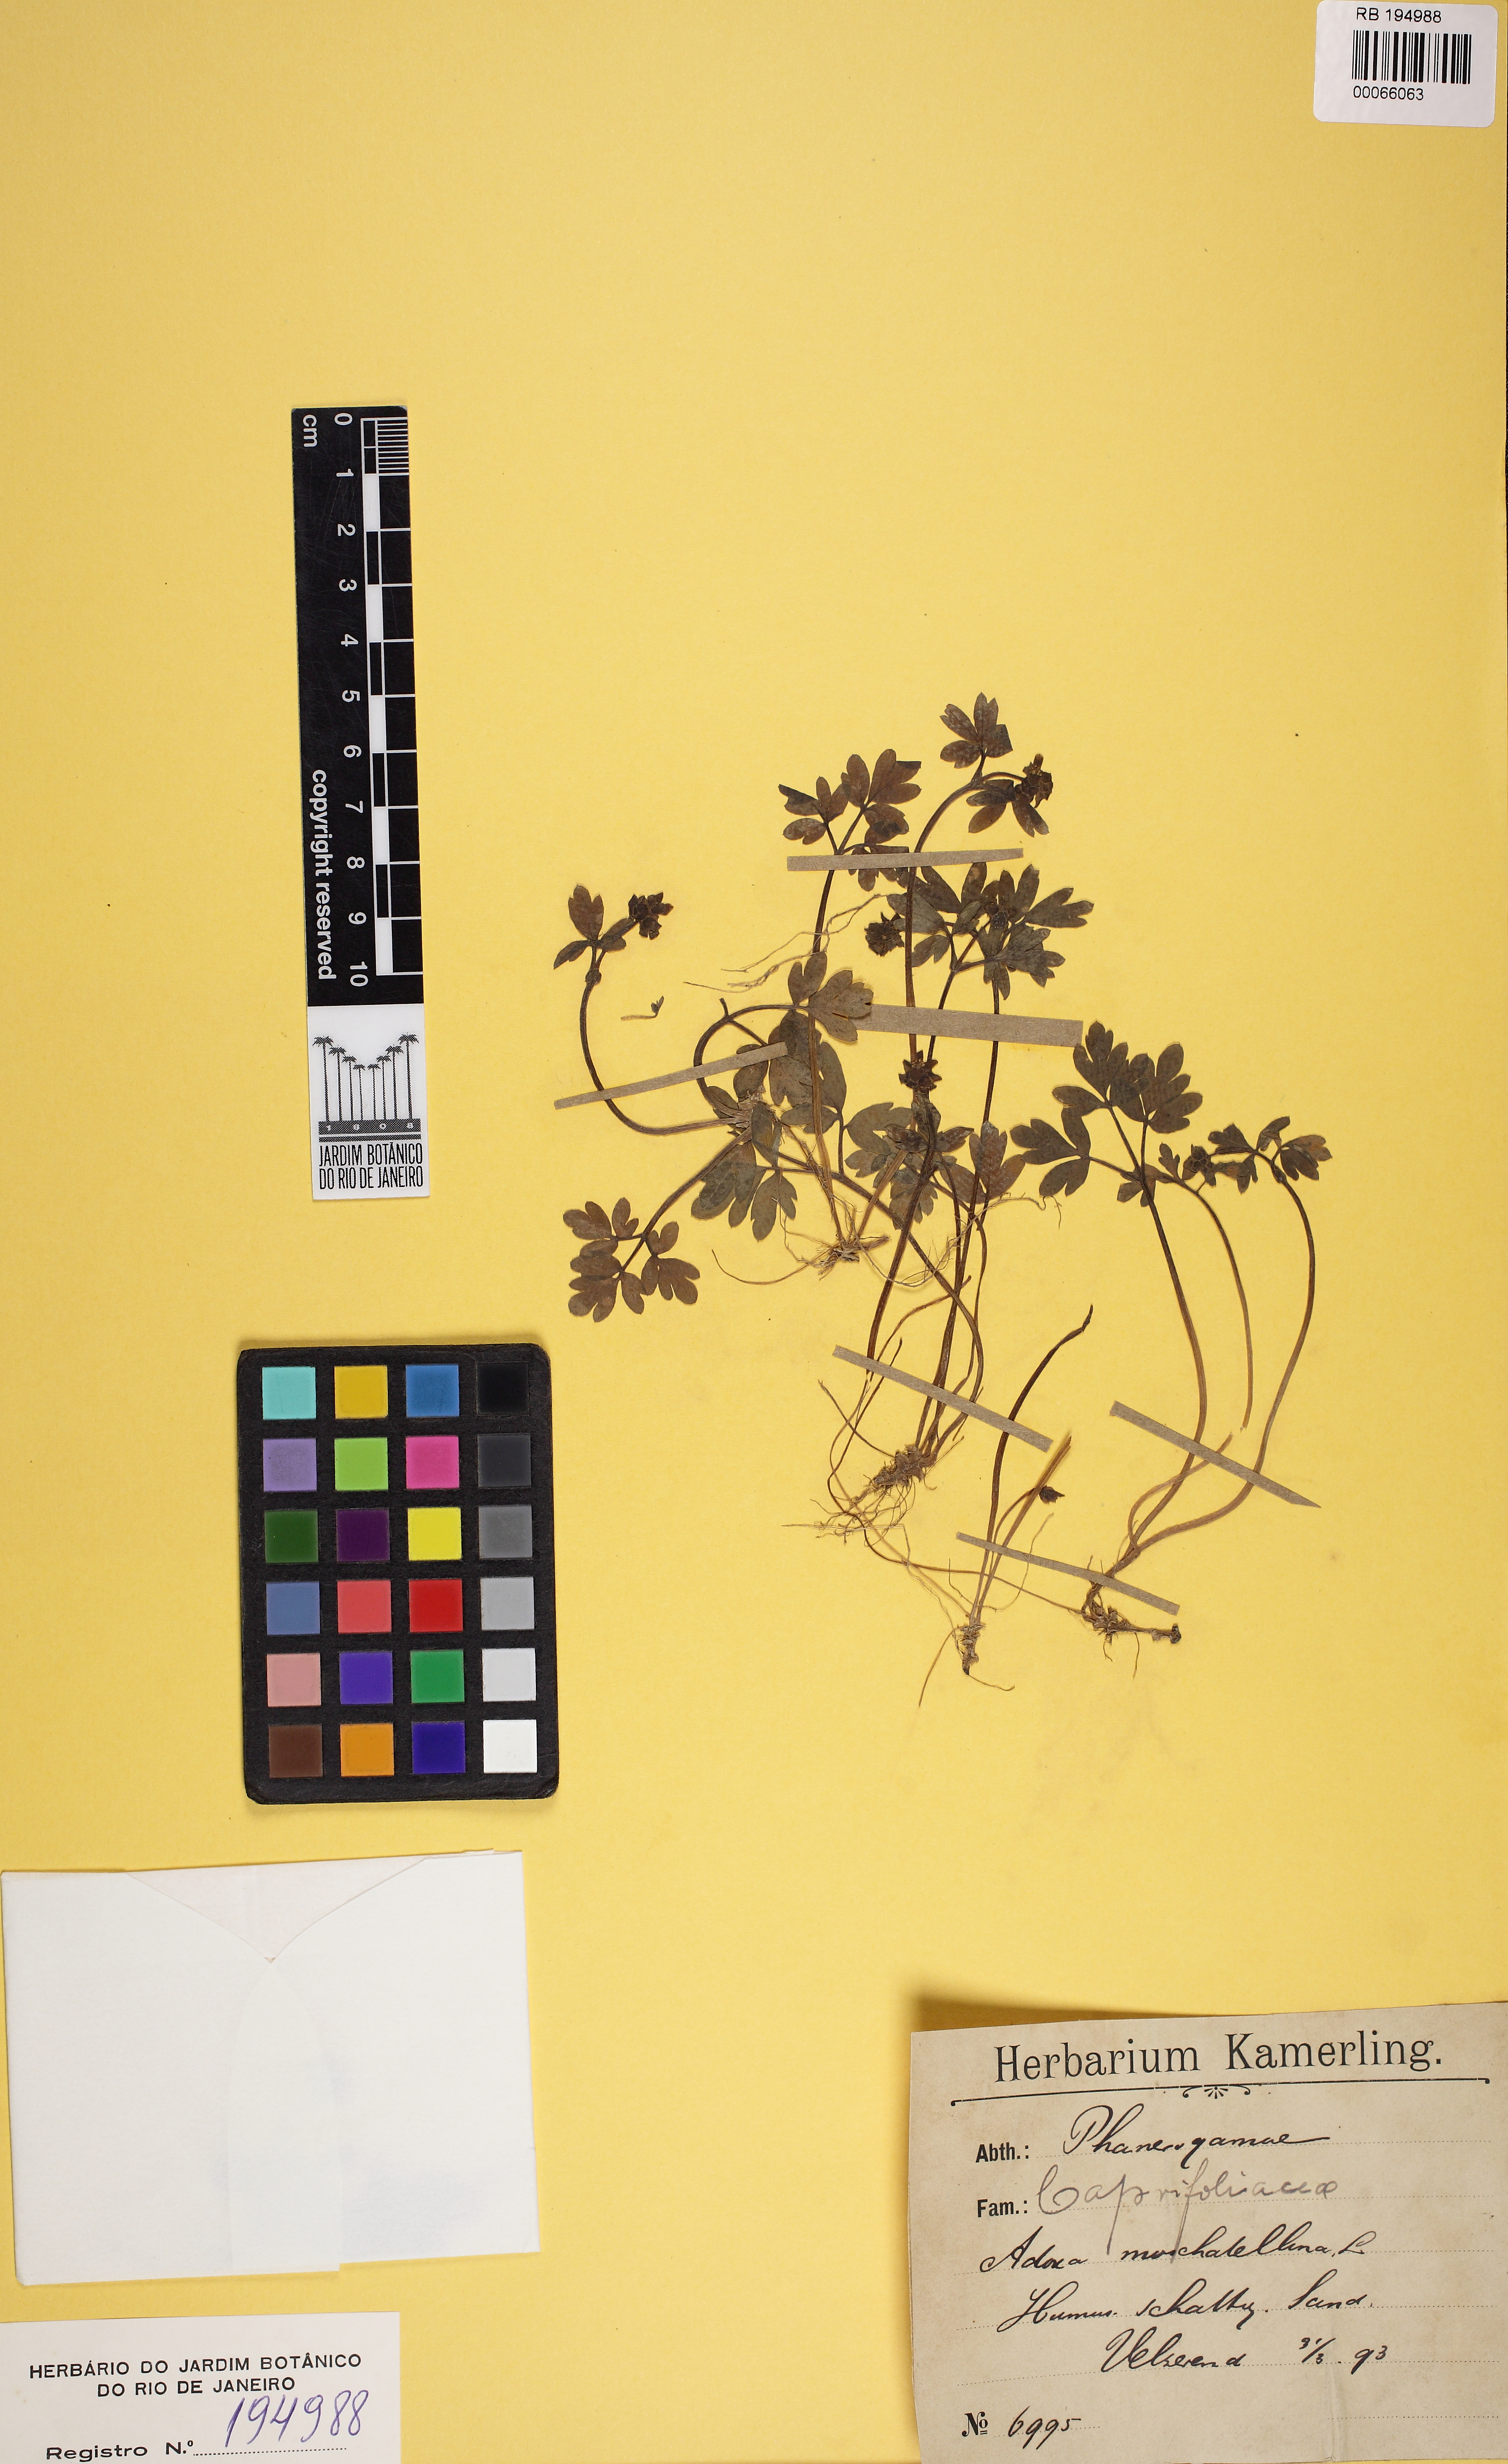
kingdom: Plantae
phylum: Tracheophyta
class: Magnoliopsida
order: Dipsacales
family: Viburnaceae
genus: Adoxa
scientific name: Adoxa moschatellina
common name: Moschatel
